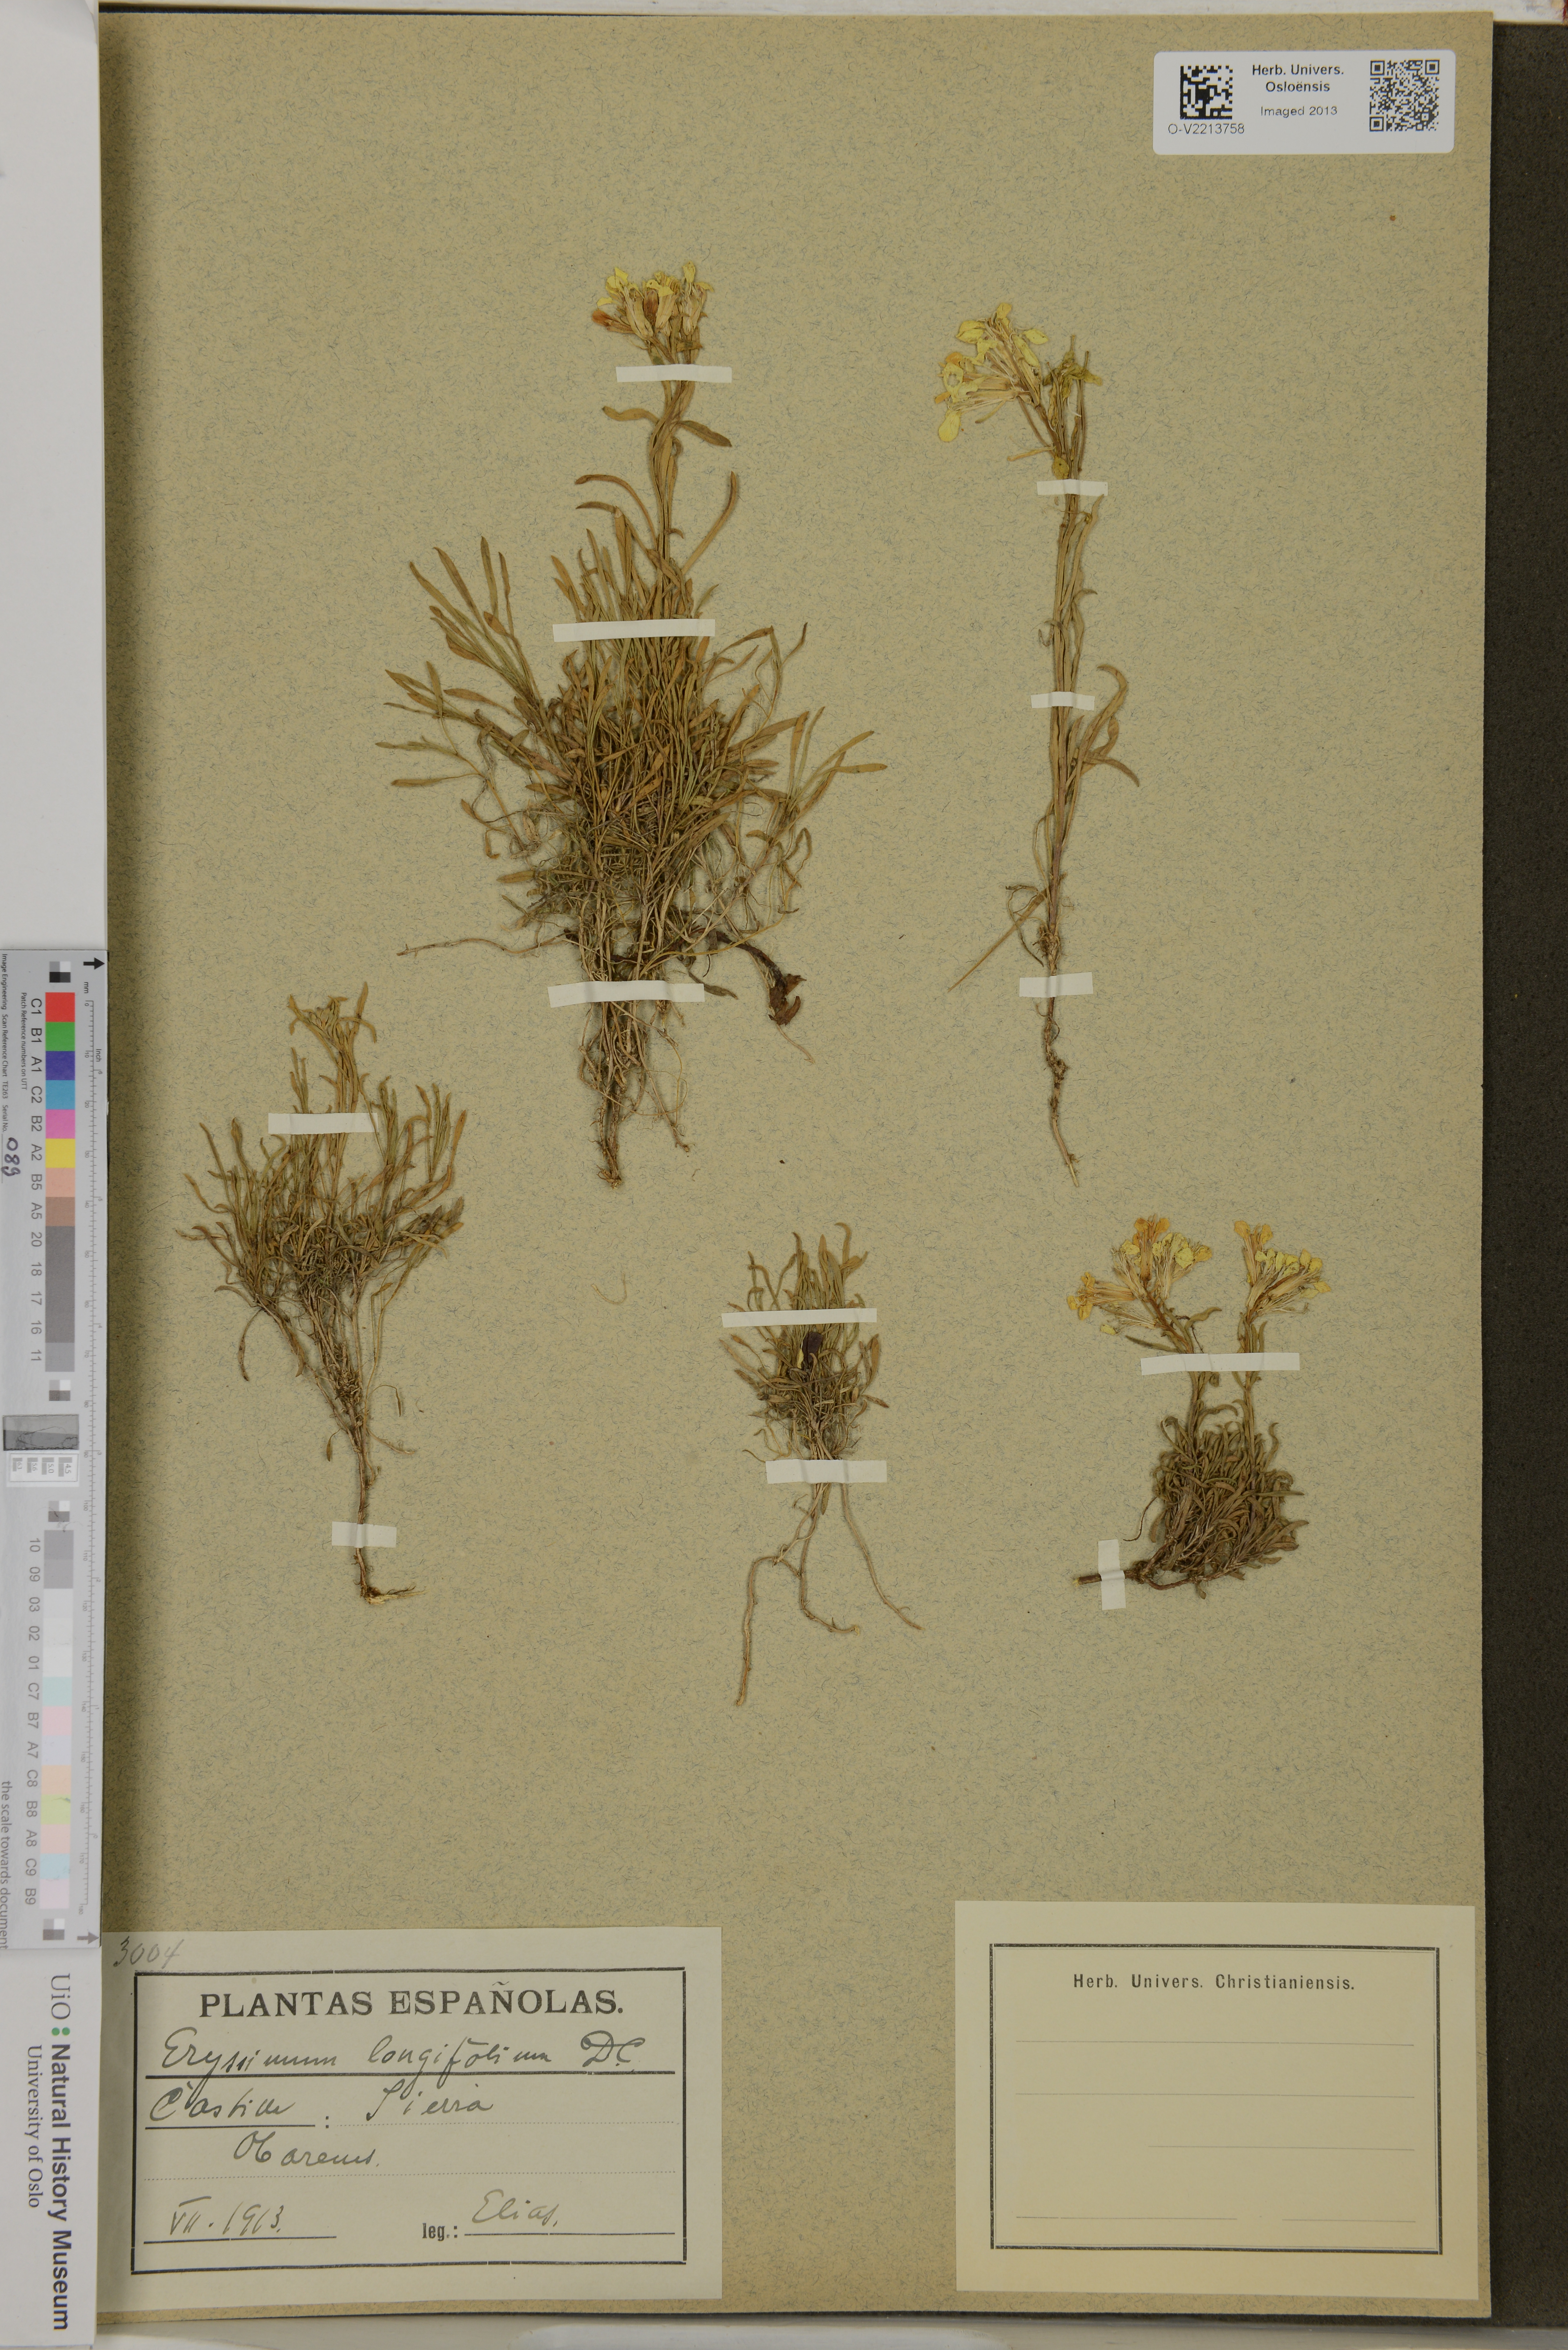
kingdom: Plantae
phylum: Tracheophyta
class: Magnoliopsida
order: Brassicales
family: Brassicaceae
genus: Erysimum
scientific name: Erysimum duriaei
